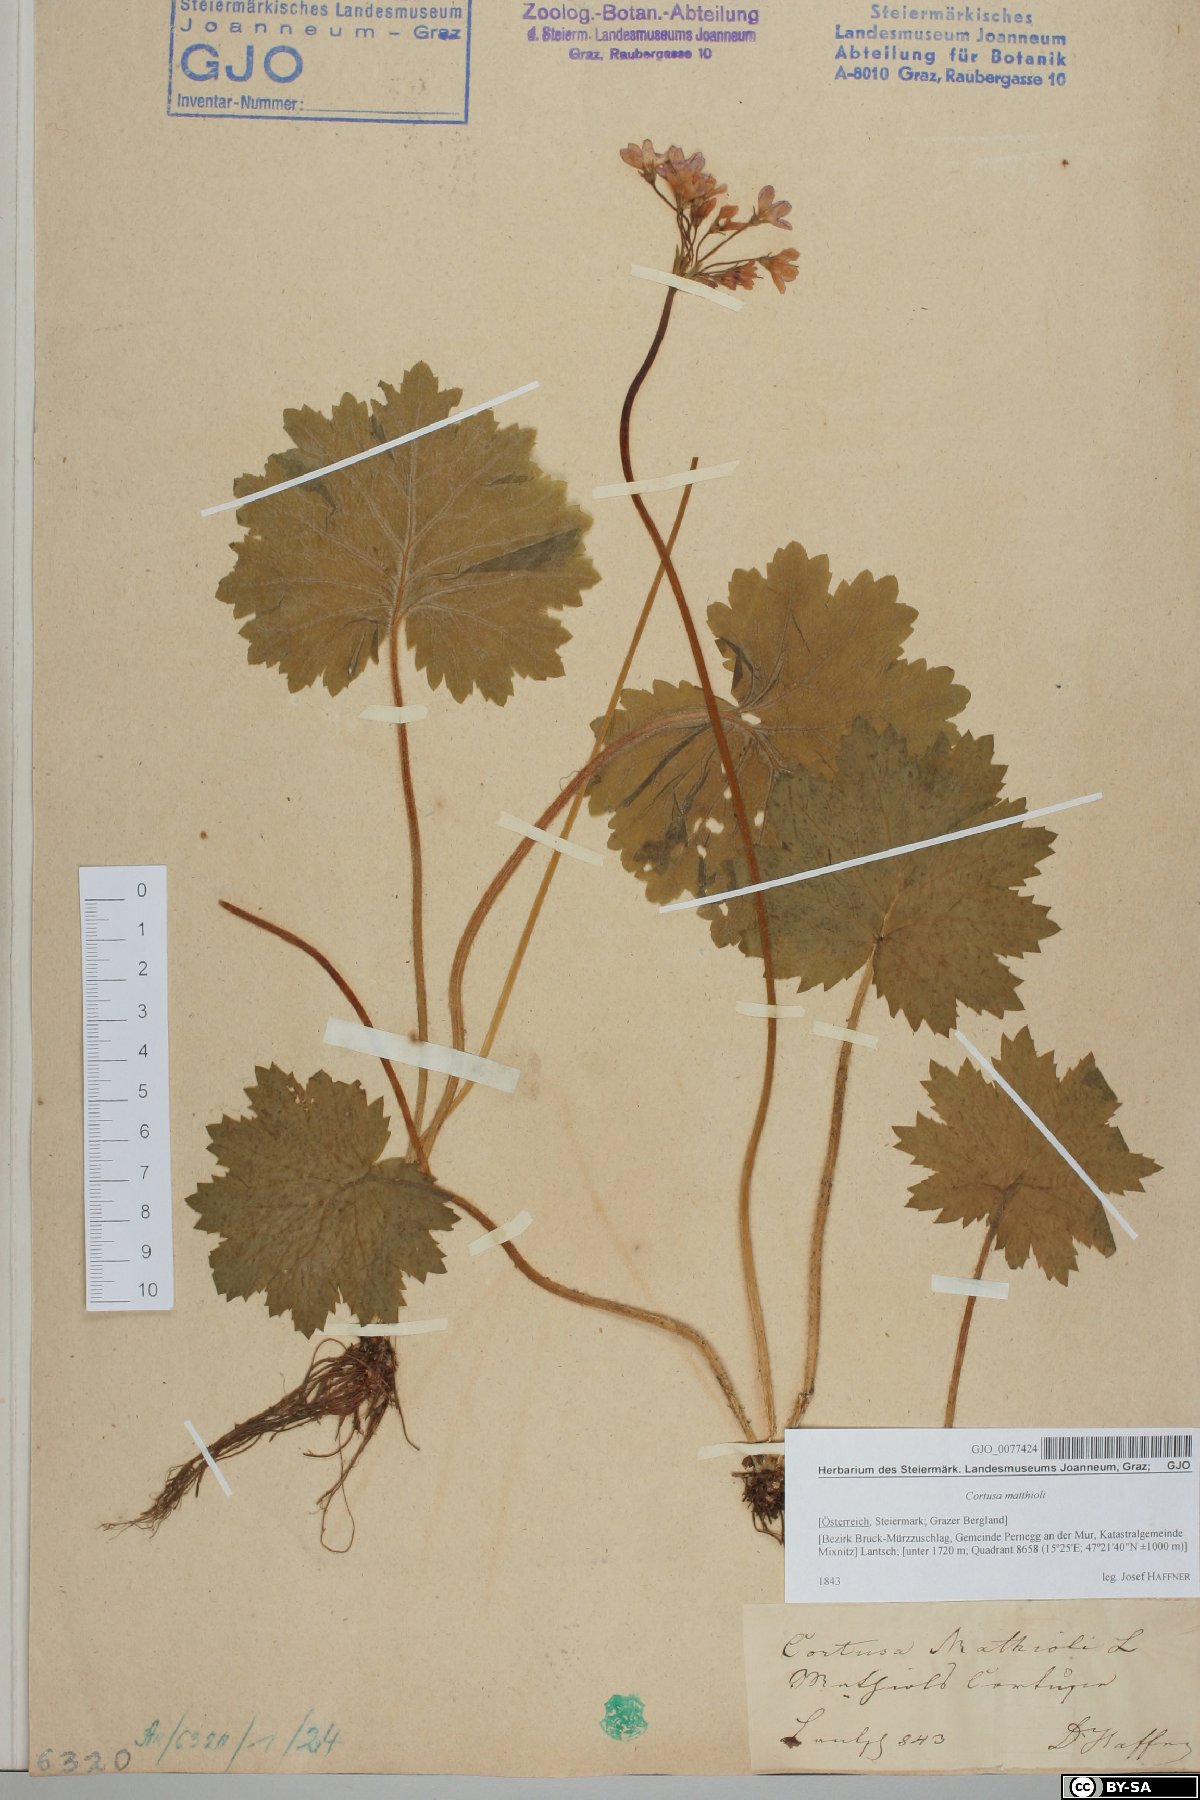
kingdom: Plantae
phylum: Tracheophyta
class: Magnoliopsida
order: Ericales
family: Primulaceae
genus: Primula
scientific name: Primula matthioli
